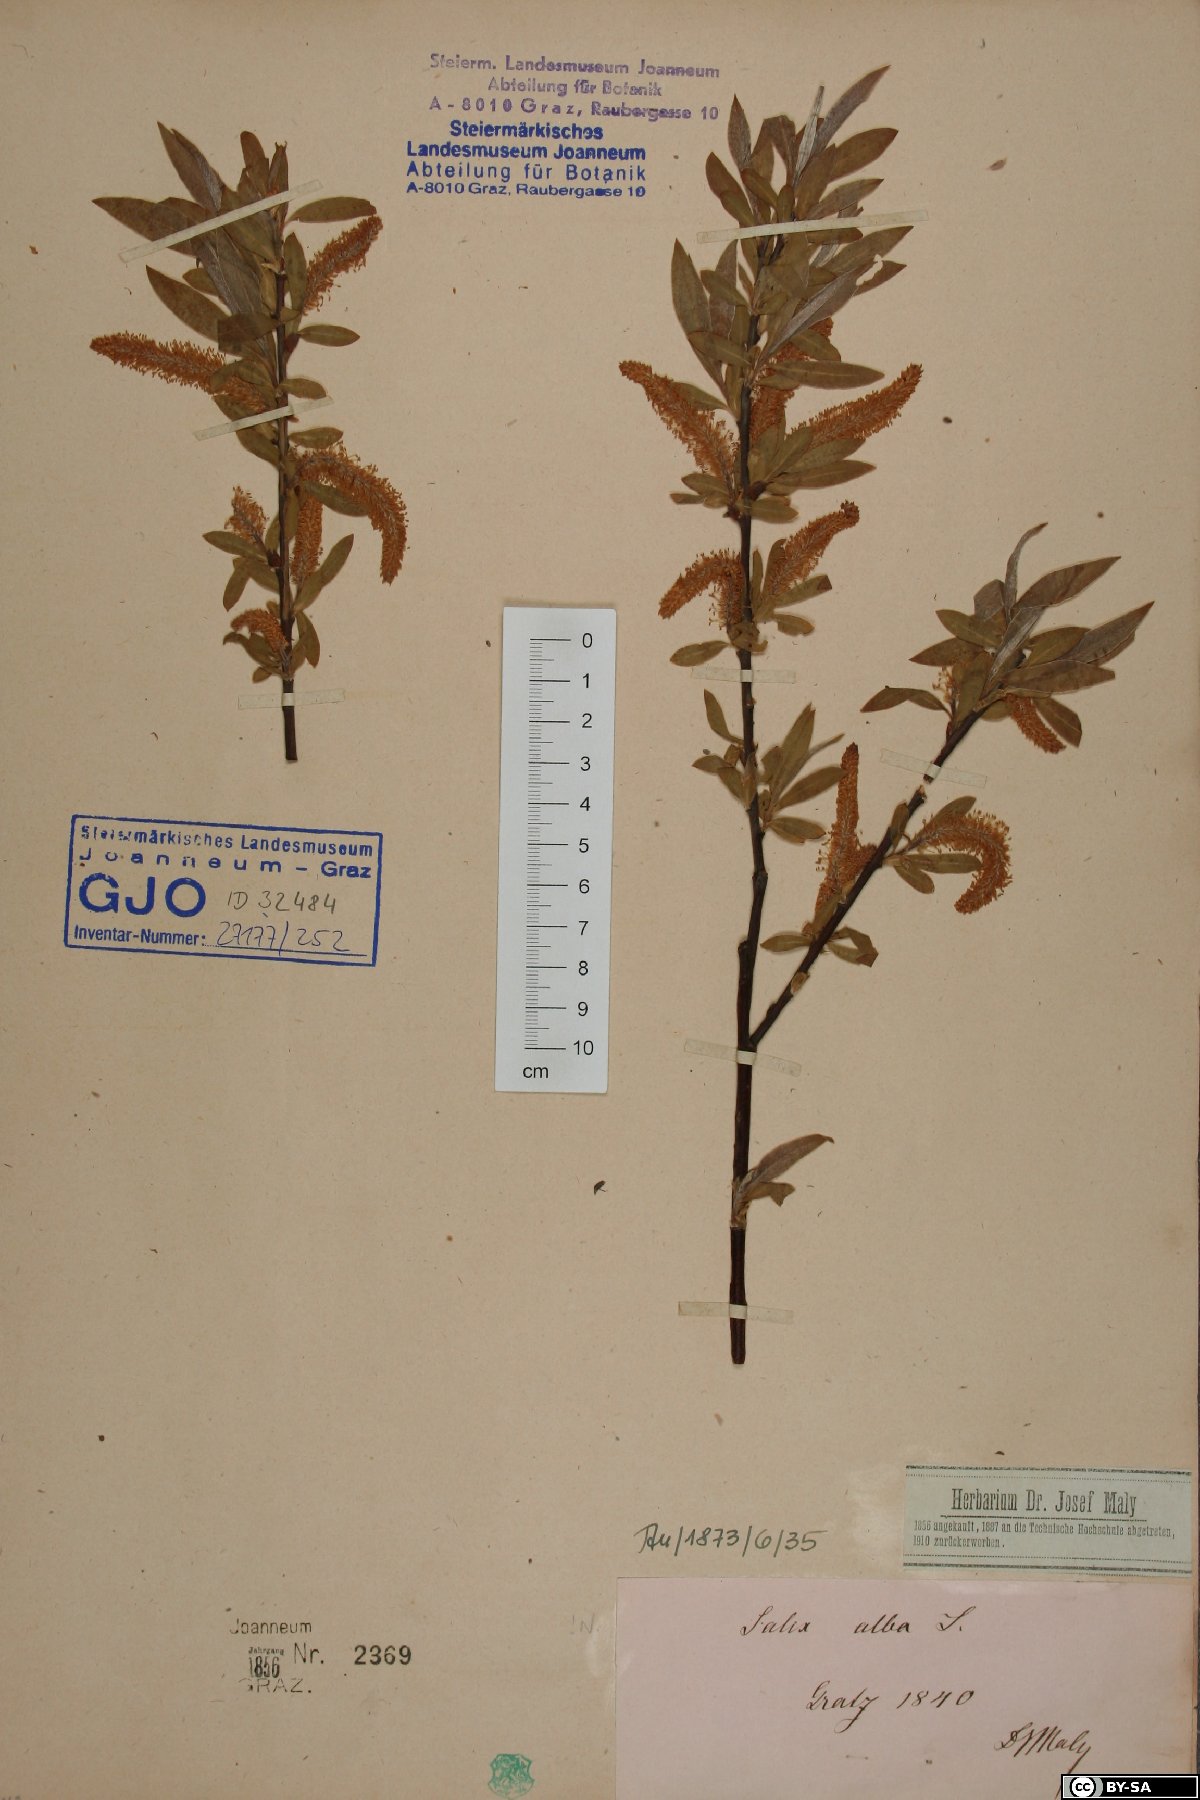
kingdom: Plantae
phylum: Tracheophyta
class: Magnoliopsida
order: Malpighiales
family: Salicaceae
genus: Salix
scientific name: Salix alba
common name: White willow
